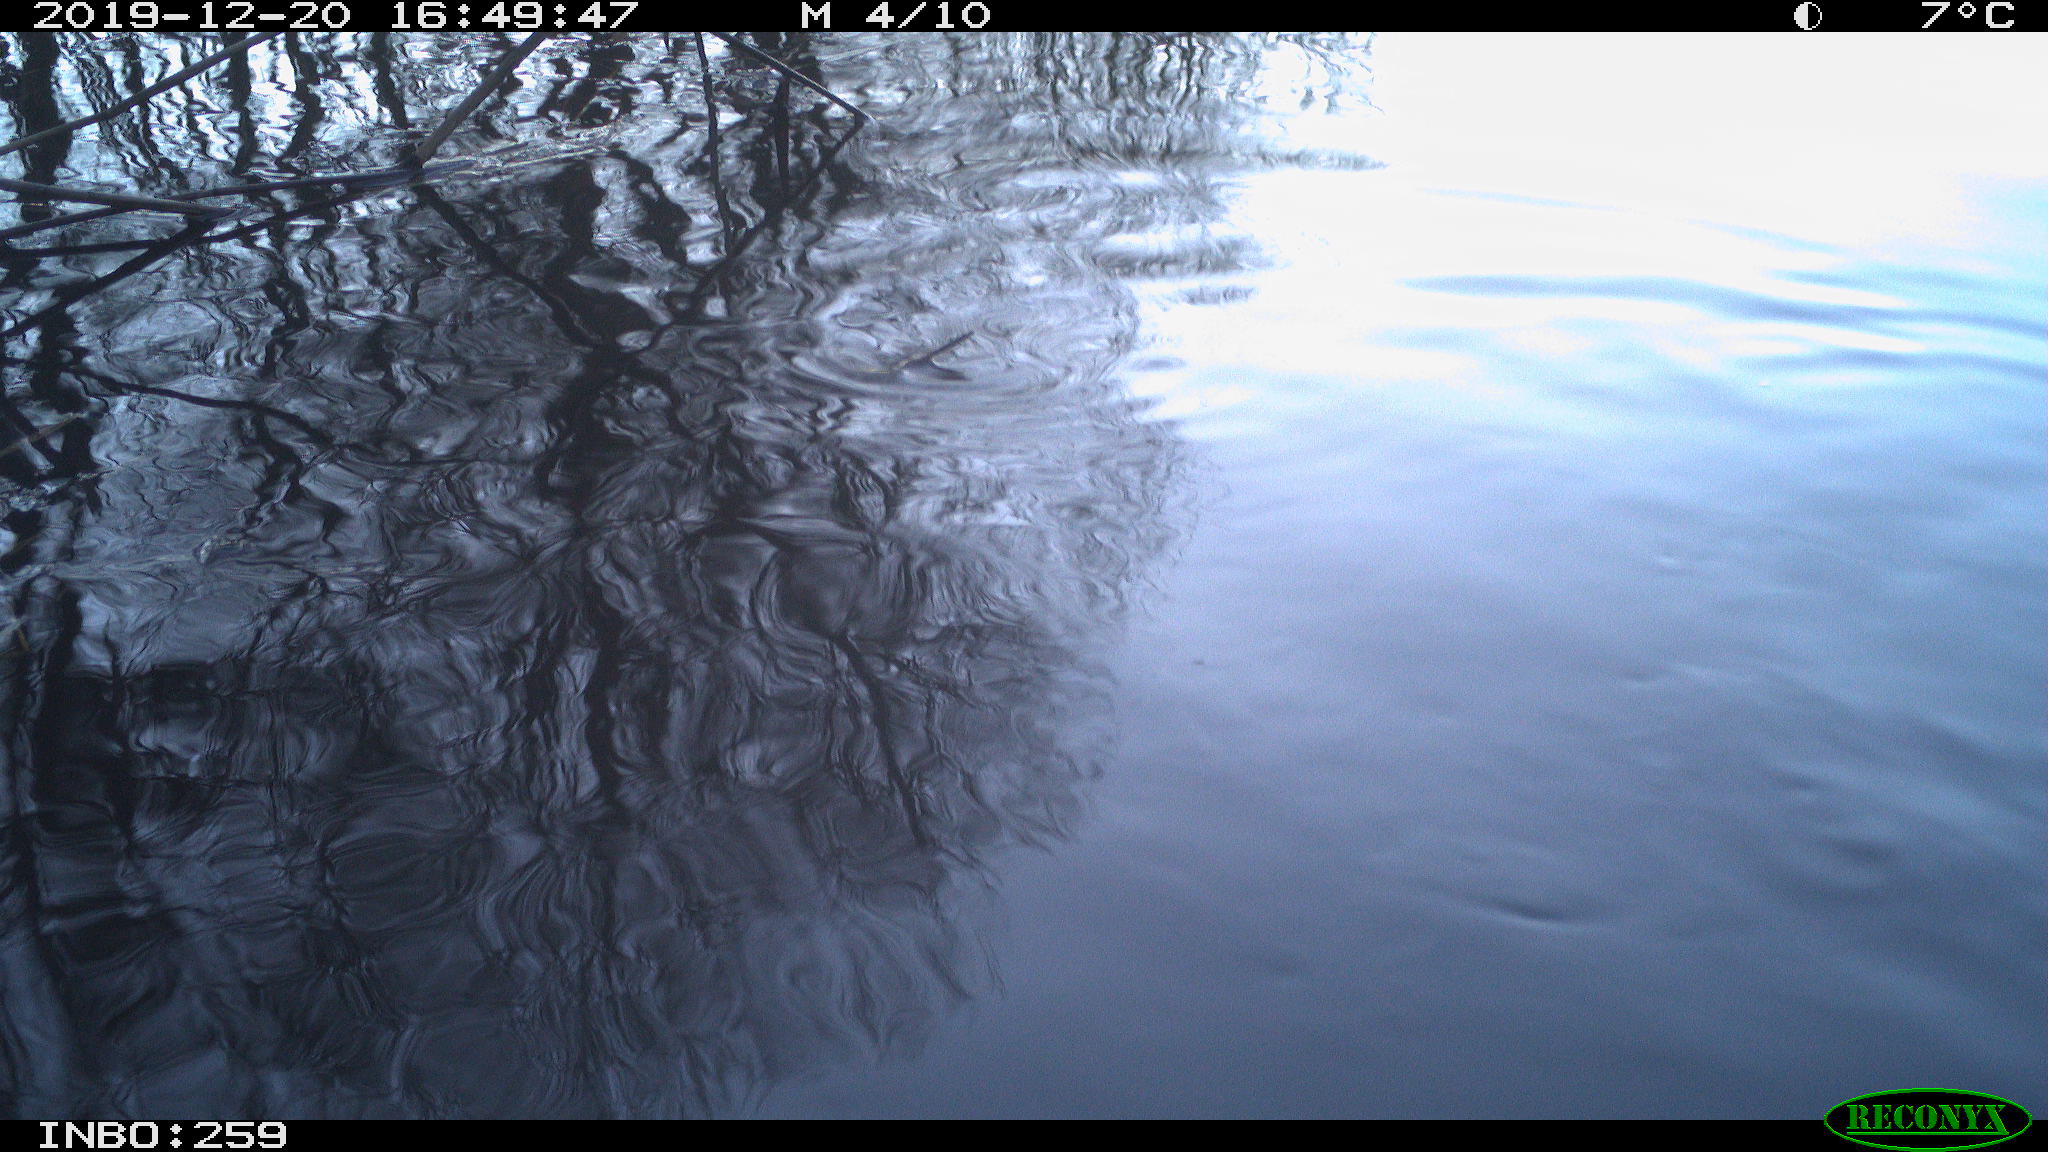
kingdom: Animalia
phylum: Chordata
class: Aves
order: Gruiformes
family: Rallidae
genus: Gallinula
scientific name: Gallinula chloropus
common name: Common moorhen
